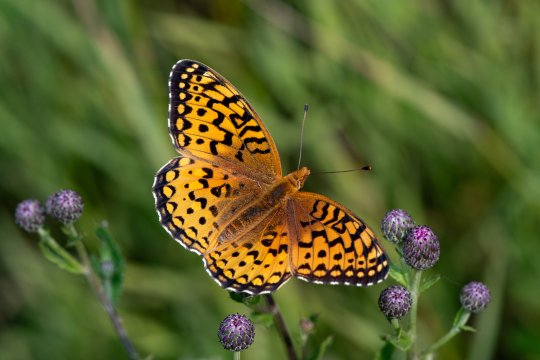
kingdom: Animalia
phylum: Arthropoda
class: Insecta
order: Lepidoptera
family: Nymphalidae
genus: Speyeria
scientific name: Speyeria atlantis
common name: Atlantis Fritillary
